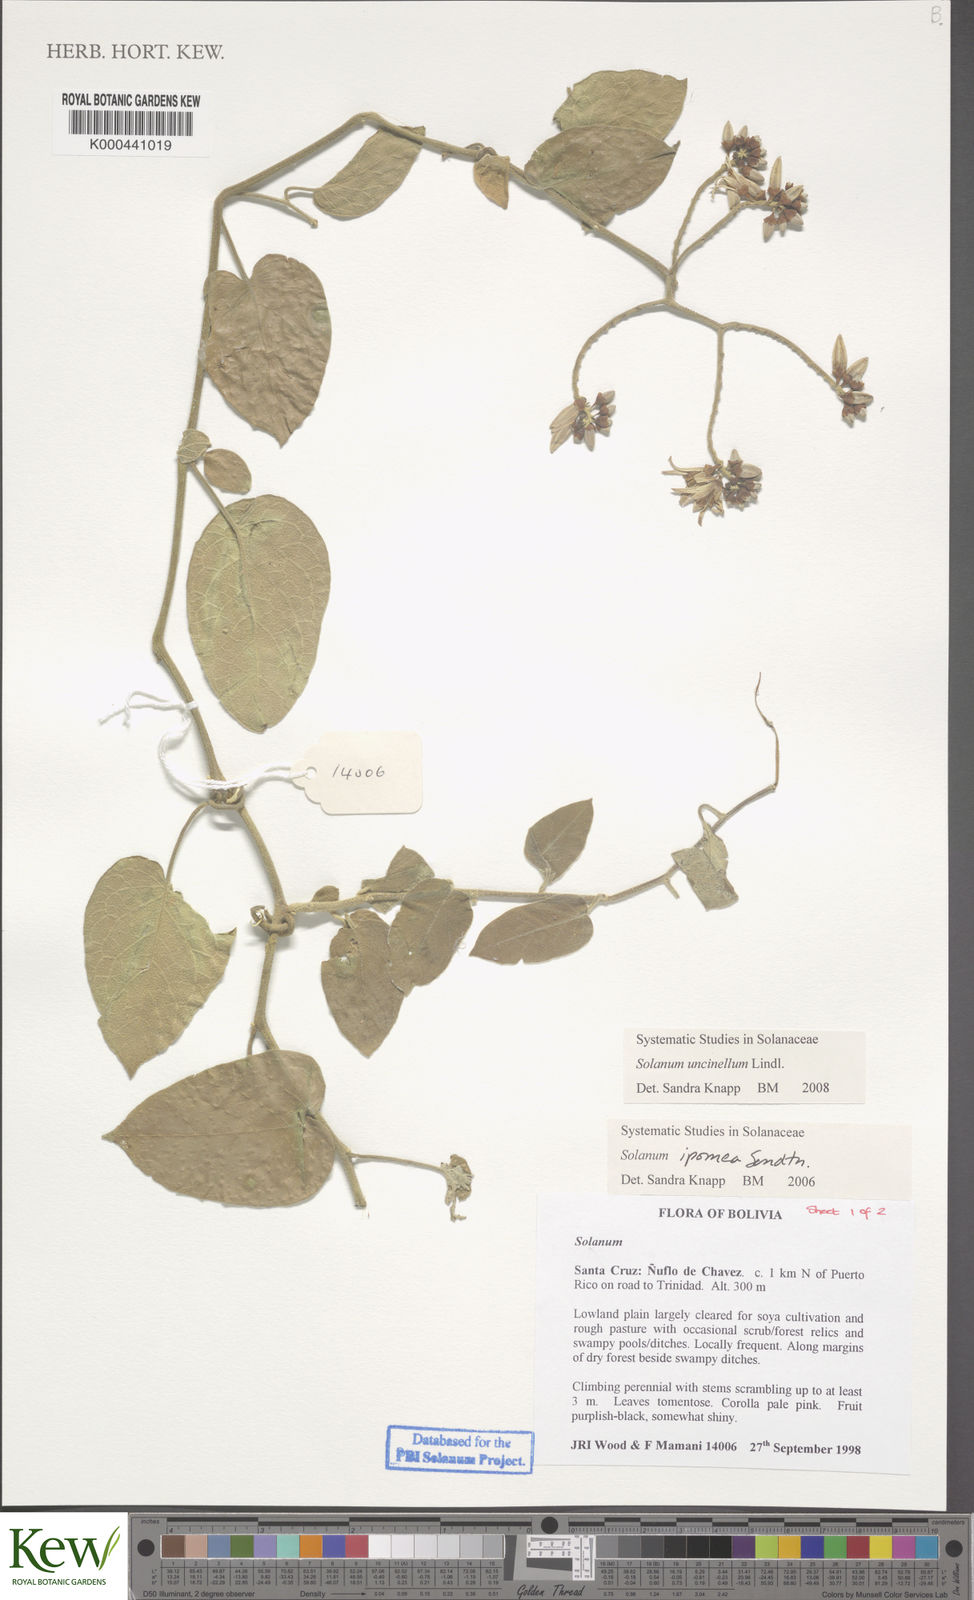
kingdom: Plantae
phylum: Tracheophyta
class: Magnoliopsida
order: Solanales
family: Solanaceae
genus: Solanum
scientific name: Solanum uncinellum
